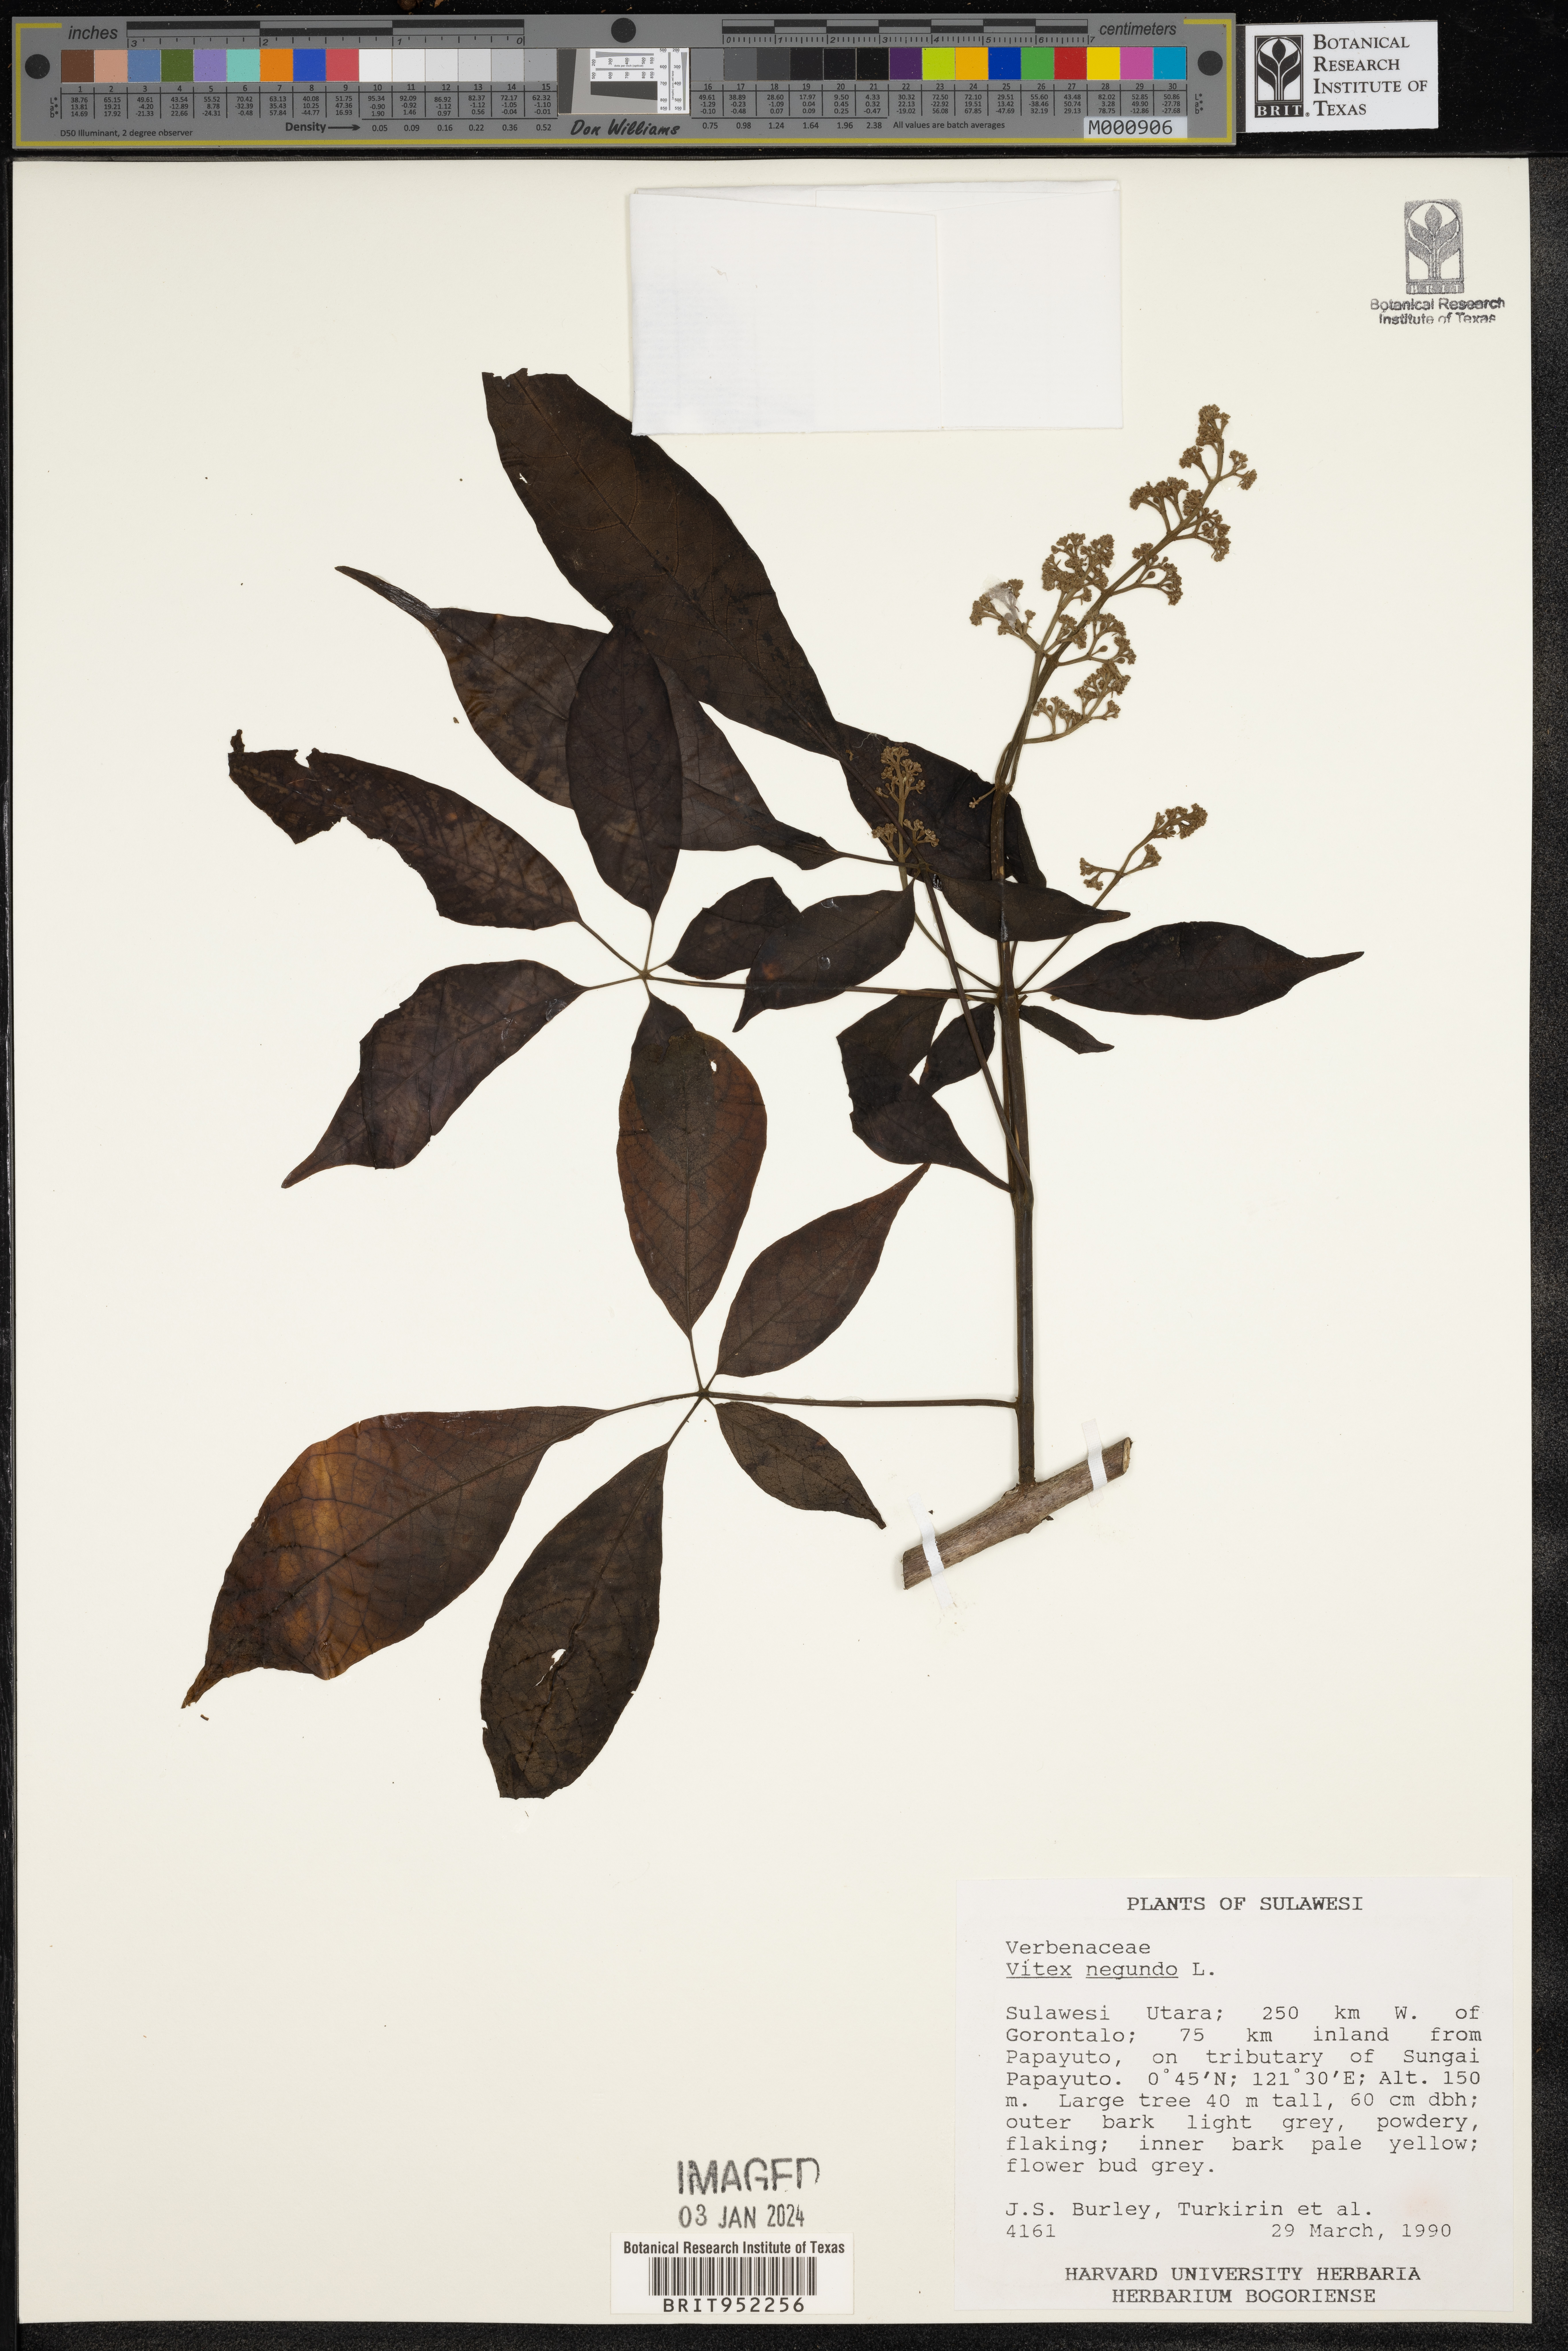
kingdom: Plantae
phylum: Tracheophyta
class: Magnoliopsida
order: Lamiales
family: Lamiaceae
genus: Vitex
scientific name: Vitex
